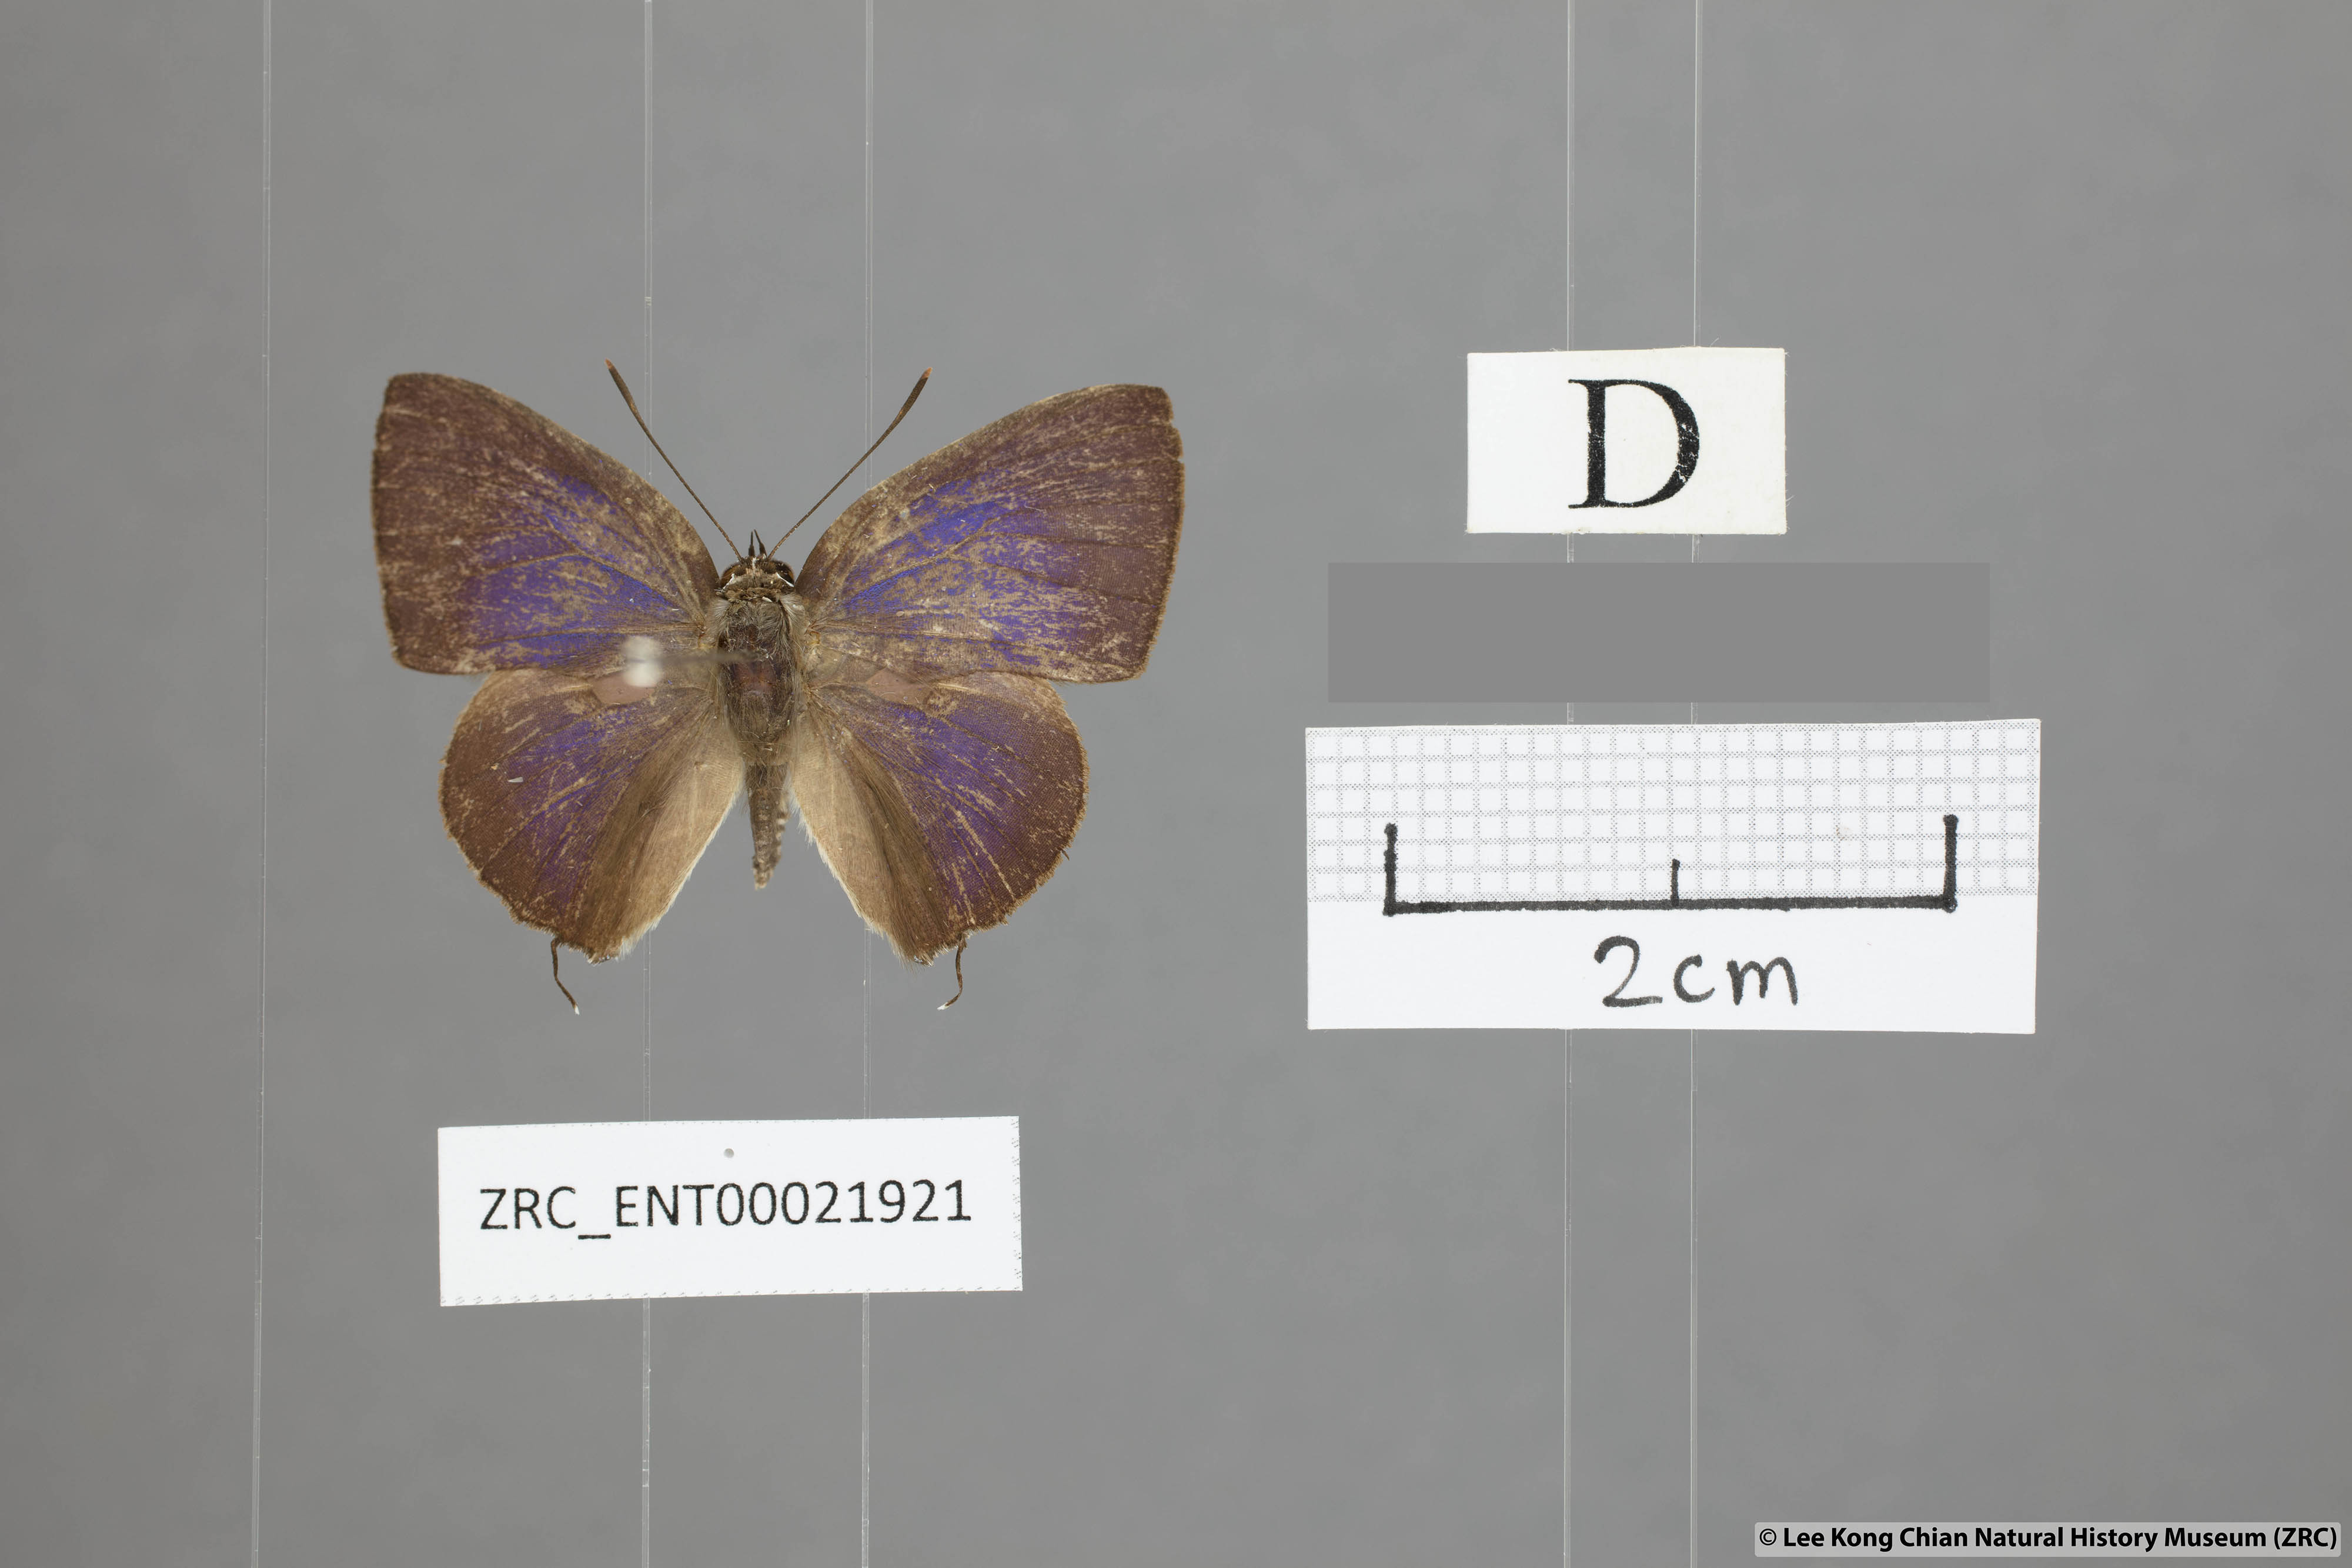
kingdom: Animalia
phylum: Arthropoda
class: Insecta
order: Lepidoptera
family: Lycaenidae
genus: Deudorix
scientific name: Deudorix
